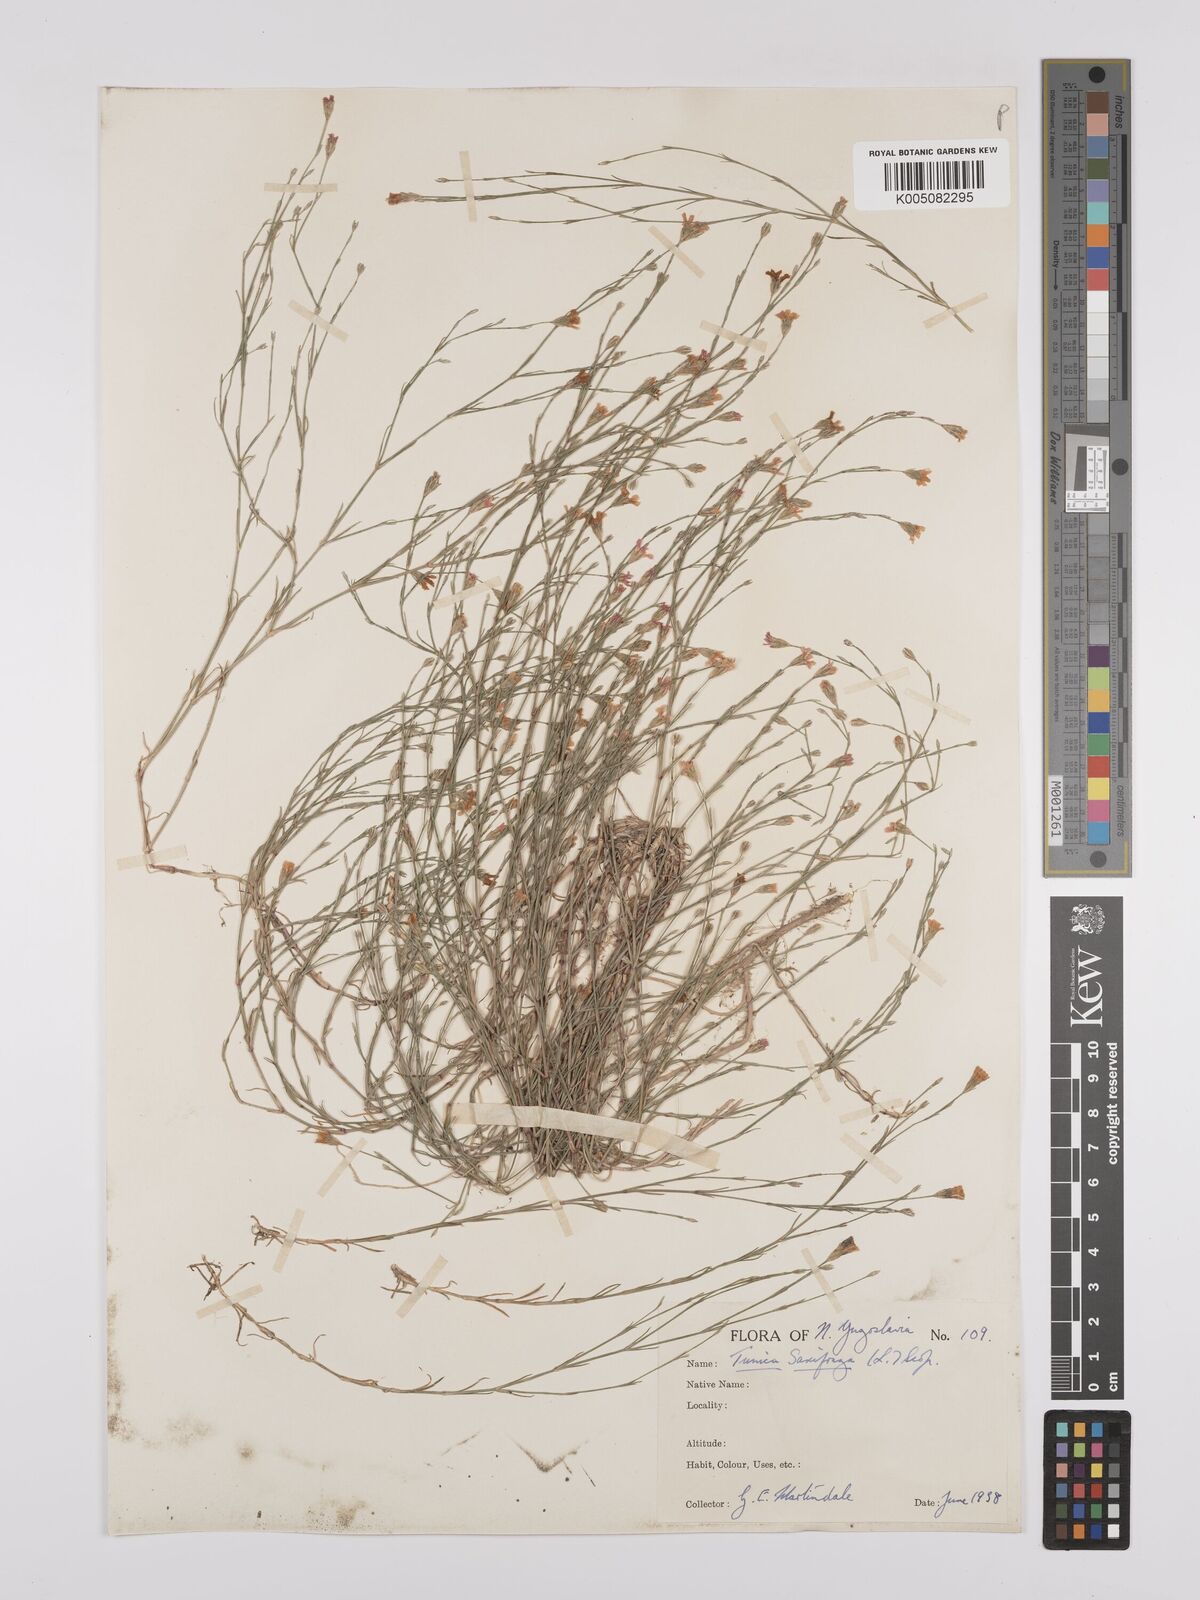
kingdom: Plantae
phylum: Tracheophyta
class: Magnoliopsida
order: Caryophyllales
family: Caryophyllaceae
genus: Petrorhagia
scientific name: Petrorhagia saxifraga
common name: Tunicflower
